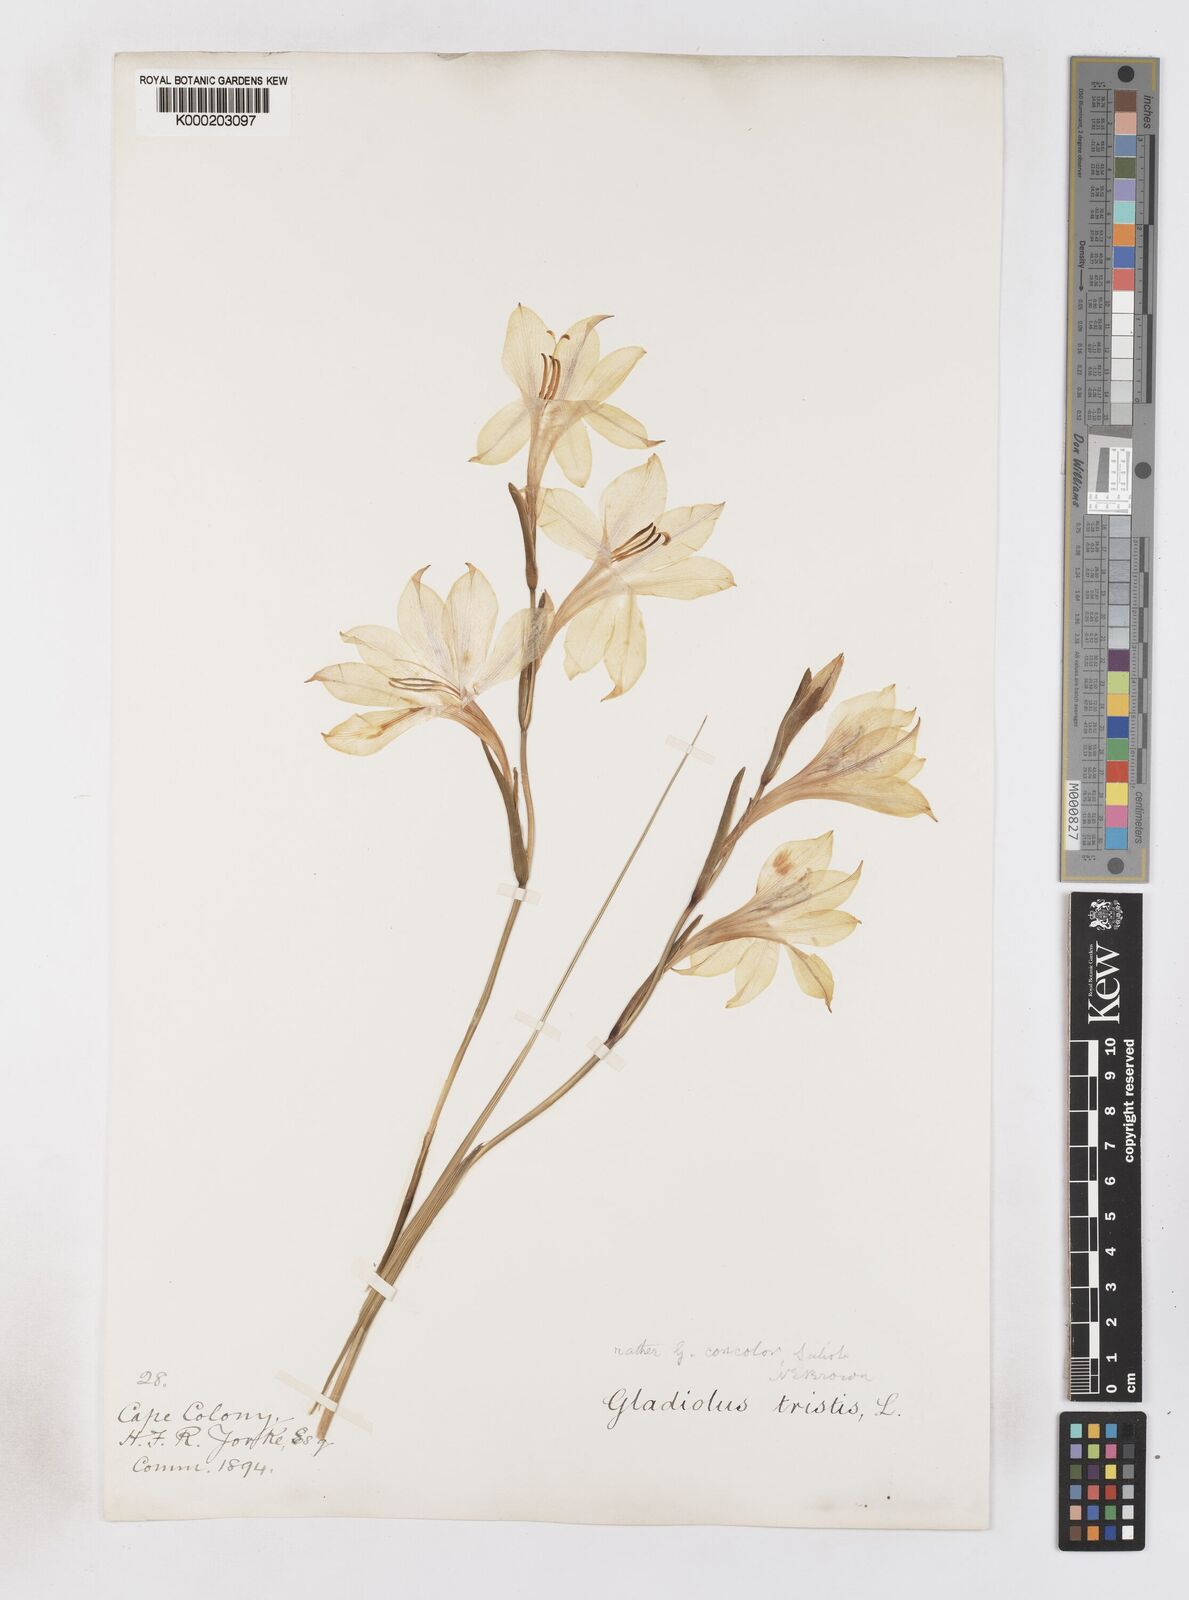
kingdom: Plantae
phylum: Tracheophyta
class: Liliopsida
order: Asparagales
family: Iridaceae
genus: Gladiolus
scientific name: Gladiolus tristis
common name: Ever-flowering gladiolus
